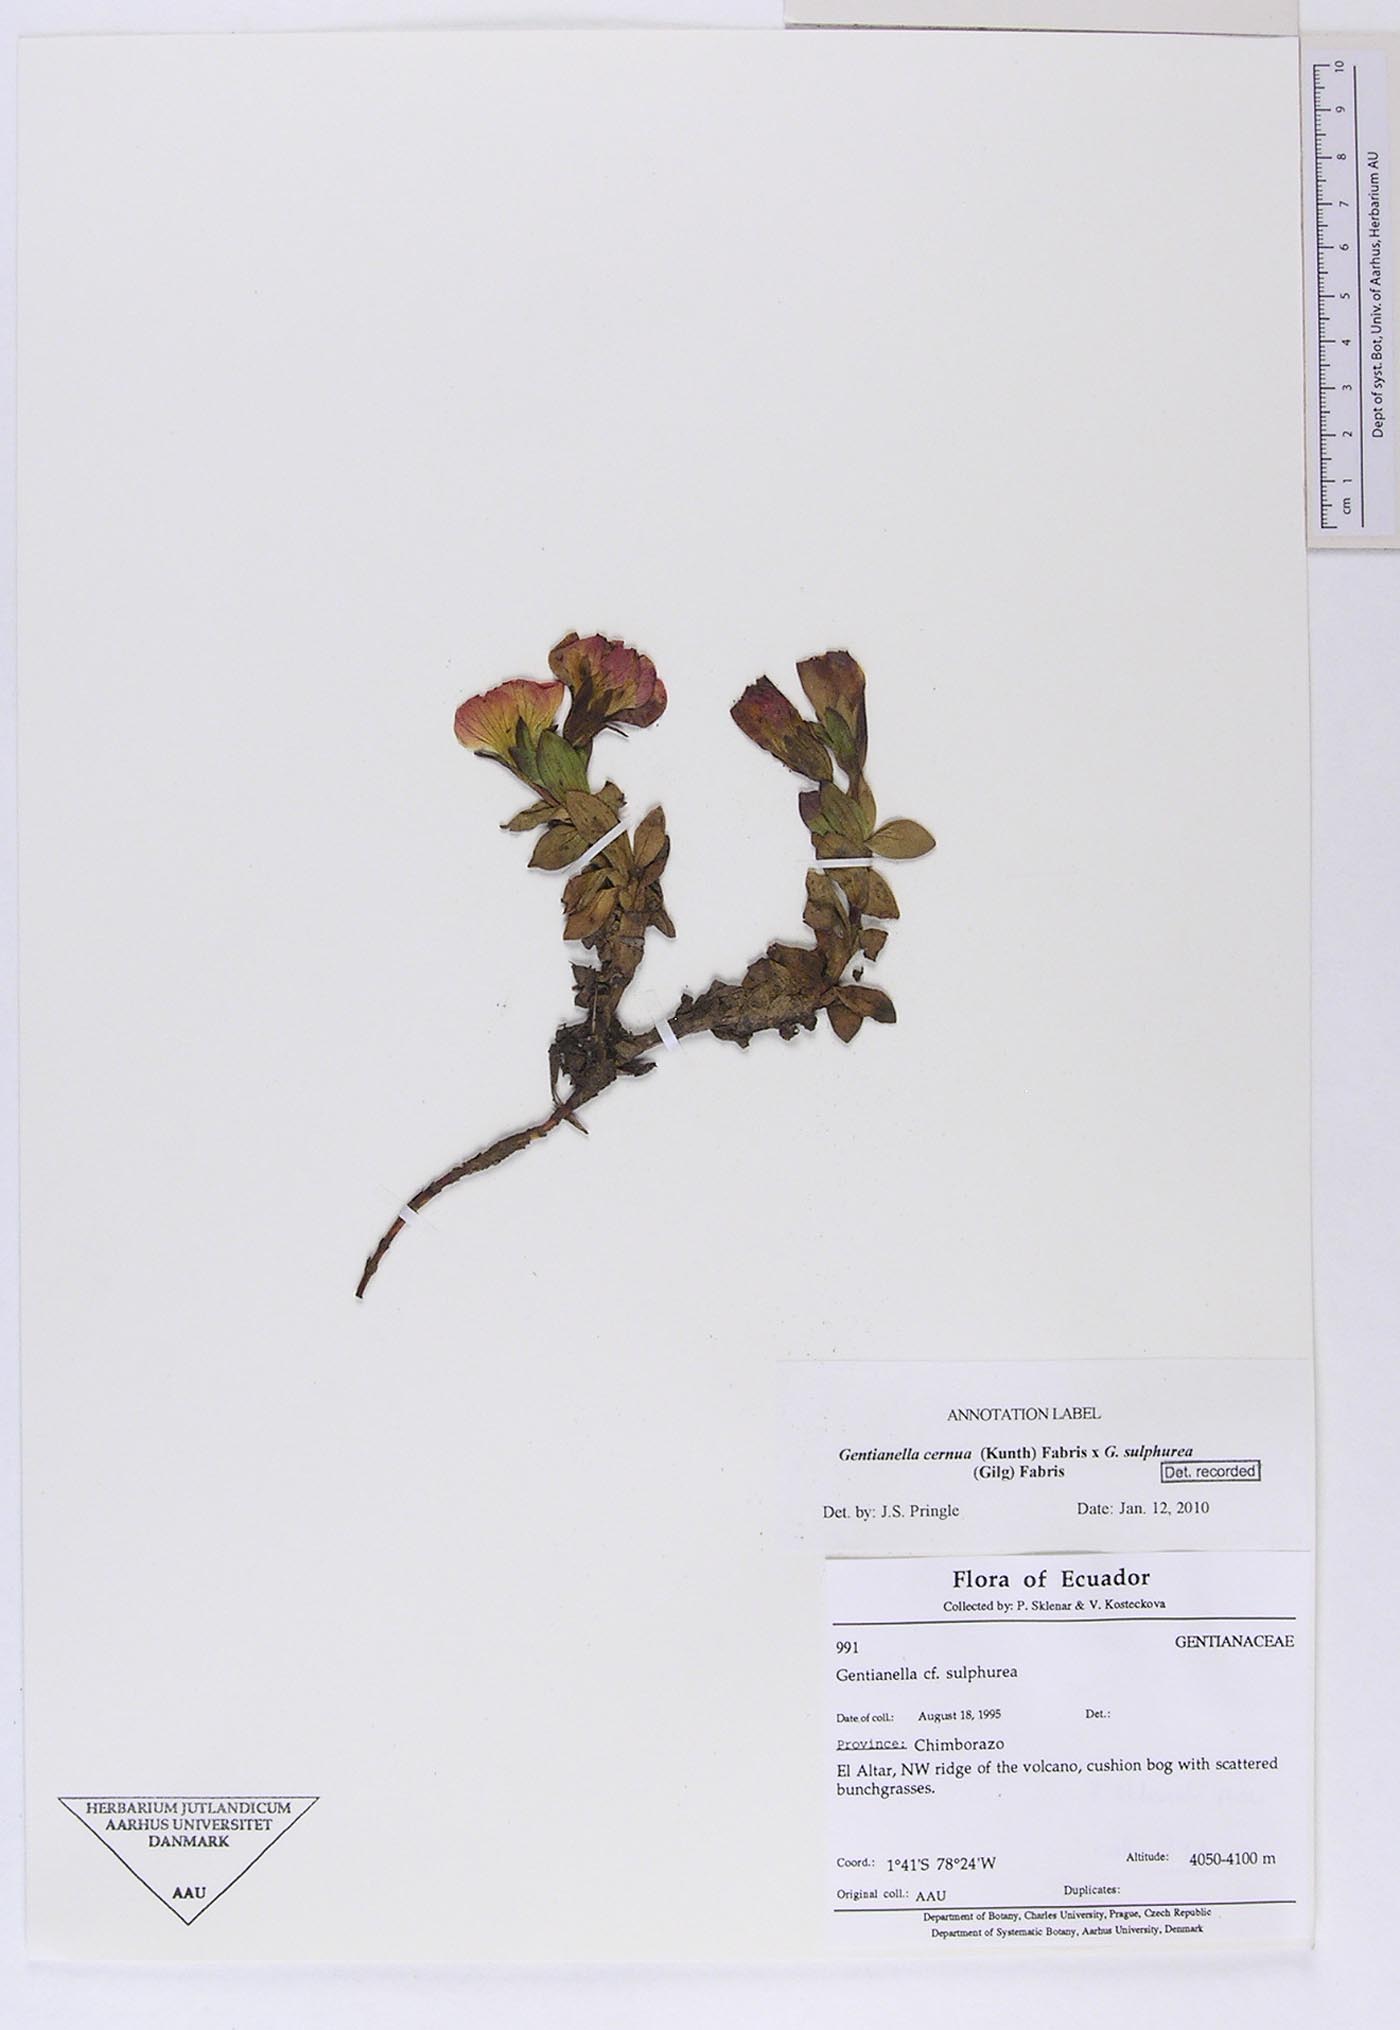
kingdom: Plantae
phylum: Tracheophyta
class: Magnoliopsida
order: Gentianales
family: Gentianaceae
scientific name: Gentianaceae
